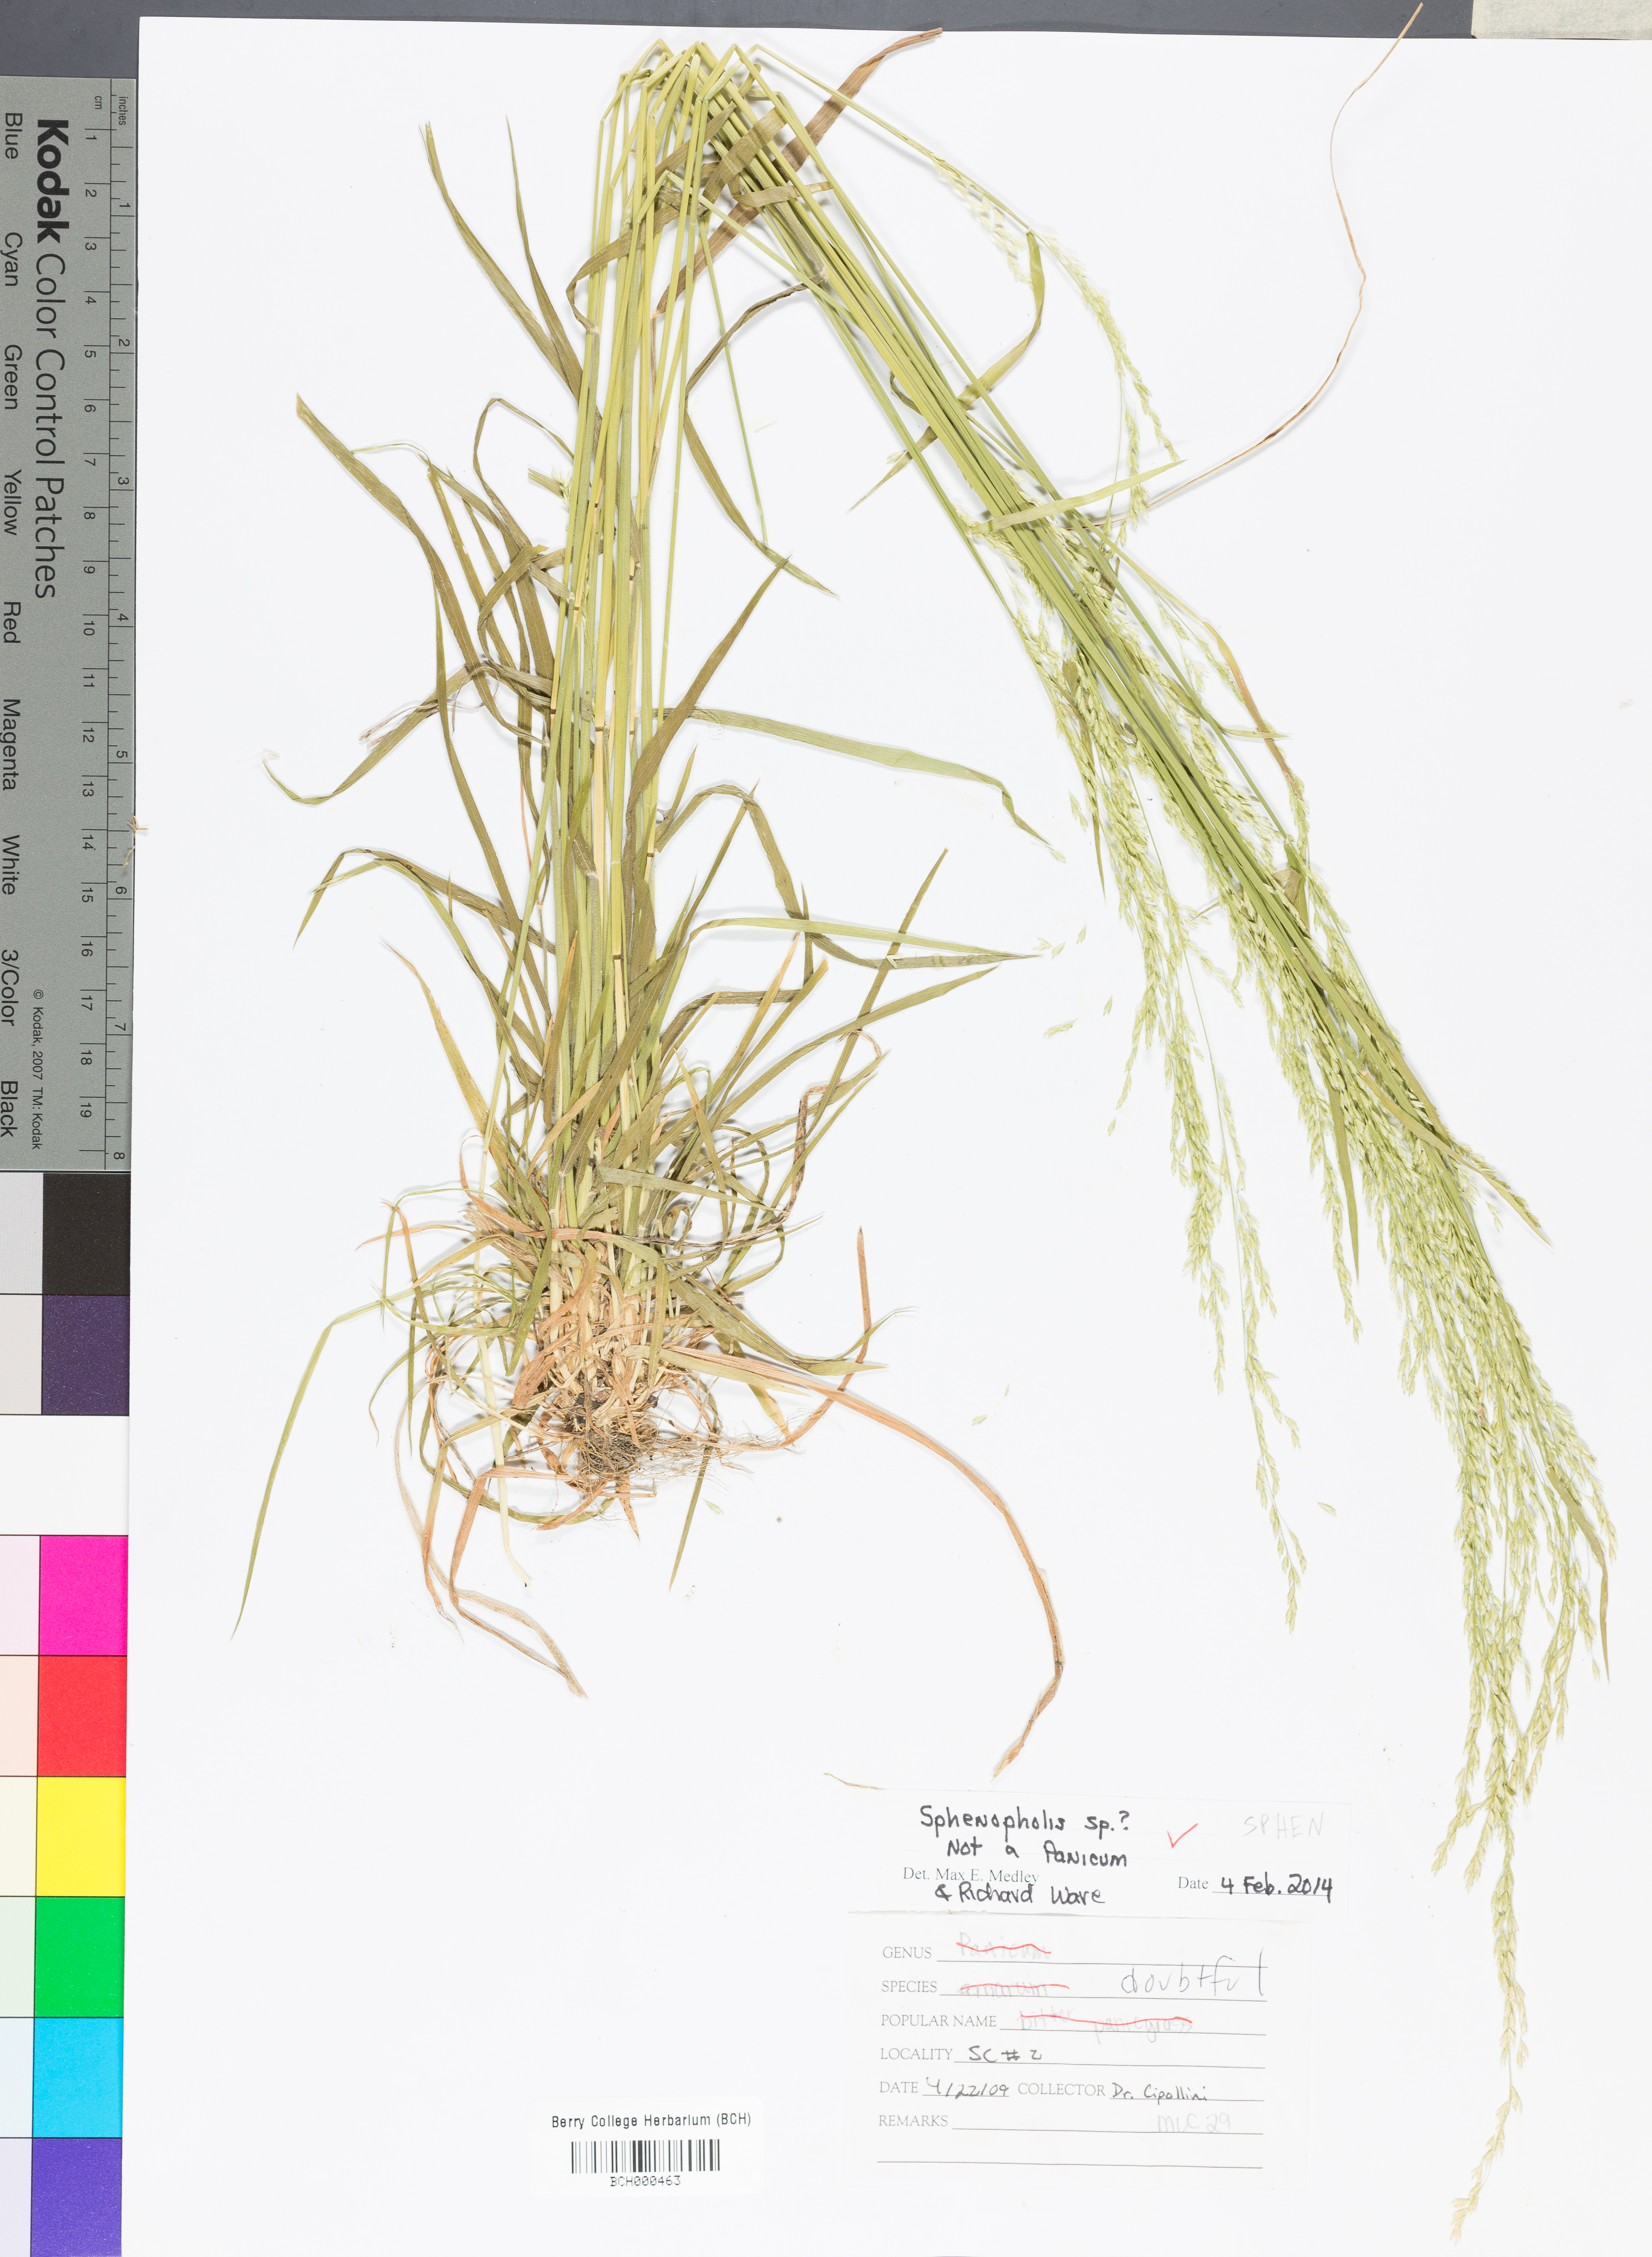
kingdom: Plantae
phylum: Tracheophyta
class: Liliopsida
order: Poales
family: Poaceae
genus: Sphenopholis
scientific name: Sphenopholis
